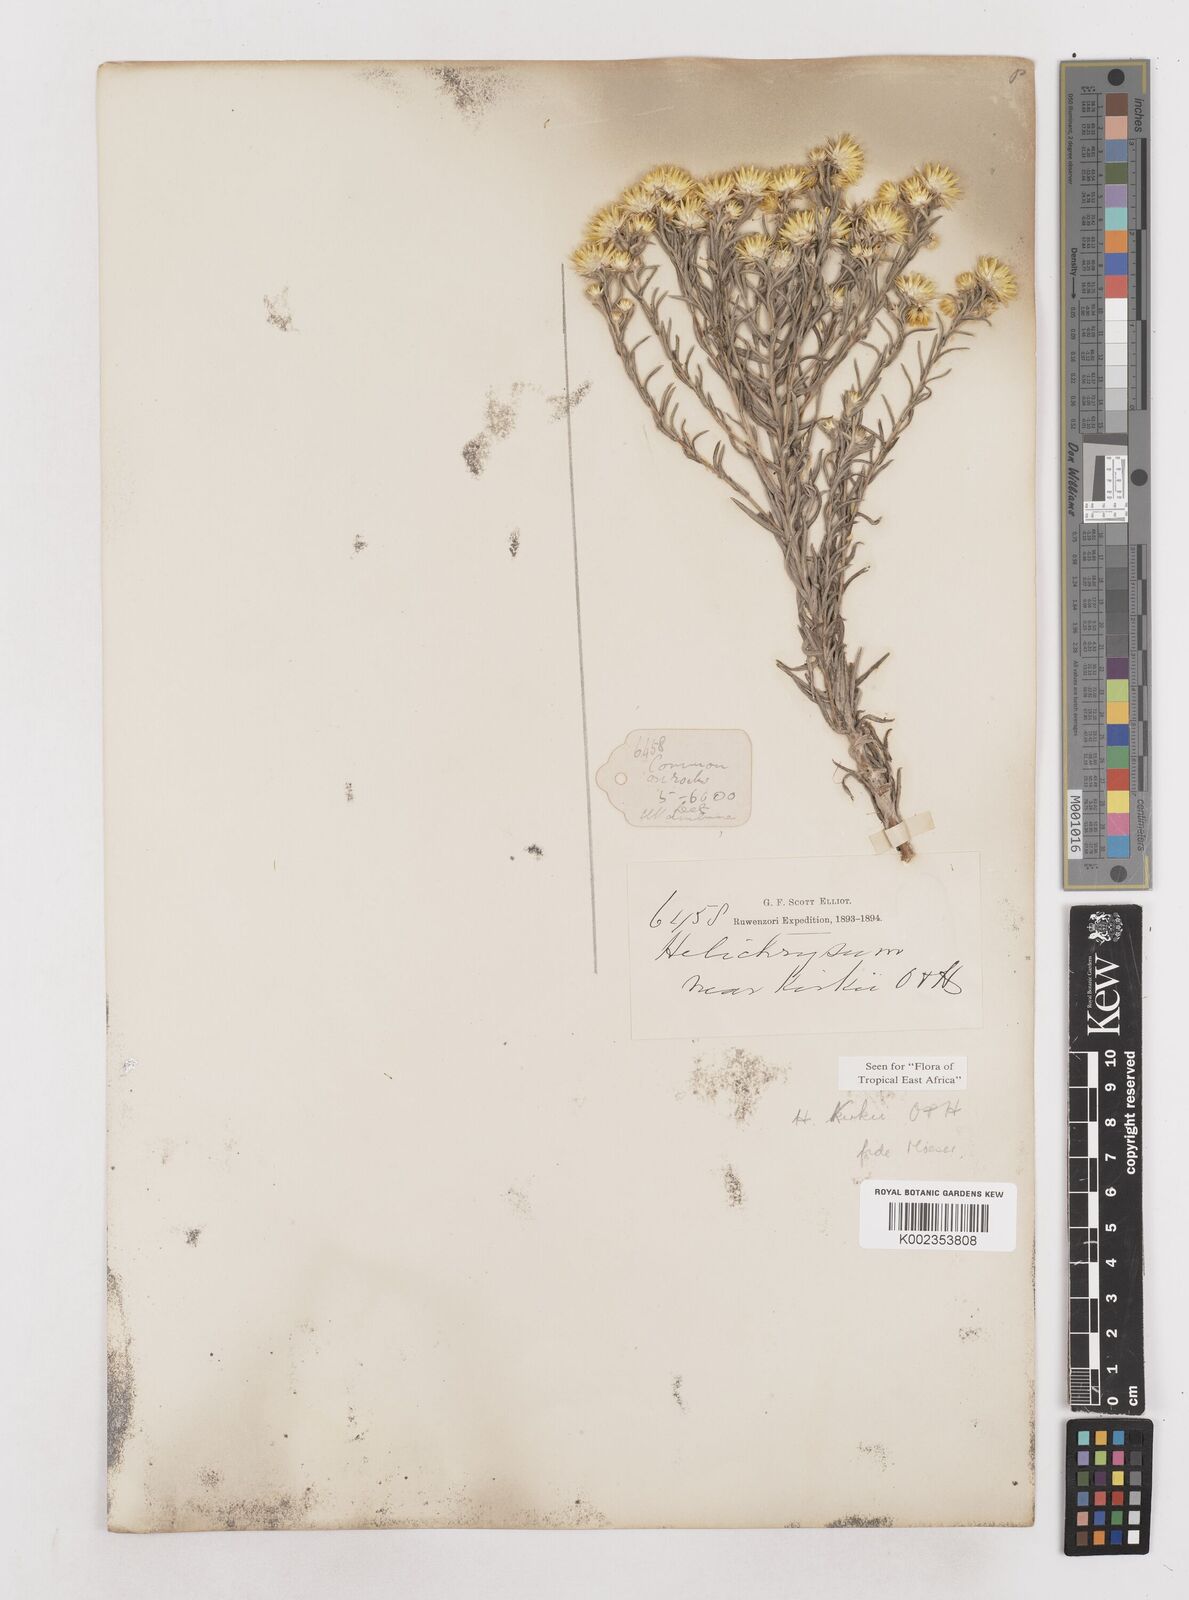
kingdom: Plantae
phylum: Tracheophyta
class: Magnoliopsida
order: Asterales
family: Asteraceae
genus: Helichrysum
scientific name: Helichrysum kirkii
